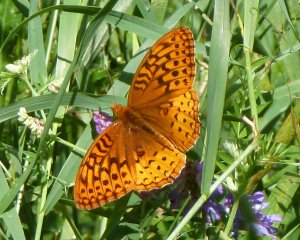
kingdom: Animalia
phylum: Arthropoda
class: Insecta
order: Lepidoptera
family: Nymphalidae
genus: Speyeria
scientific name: Speyeria cybele
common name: Great Spangled Fritillary
